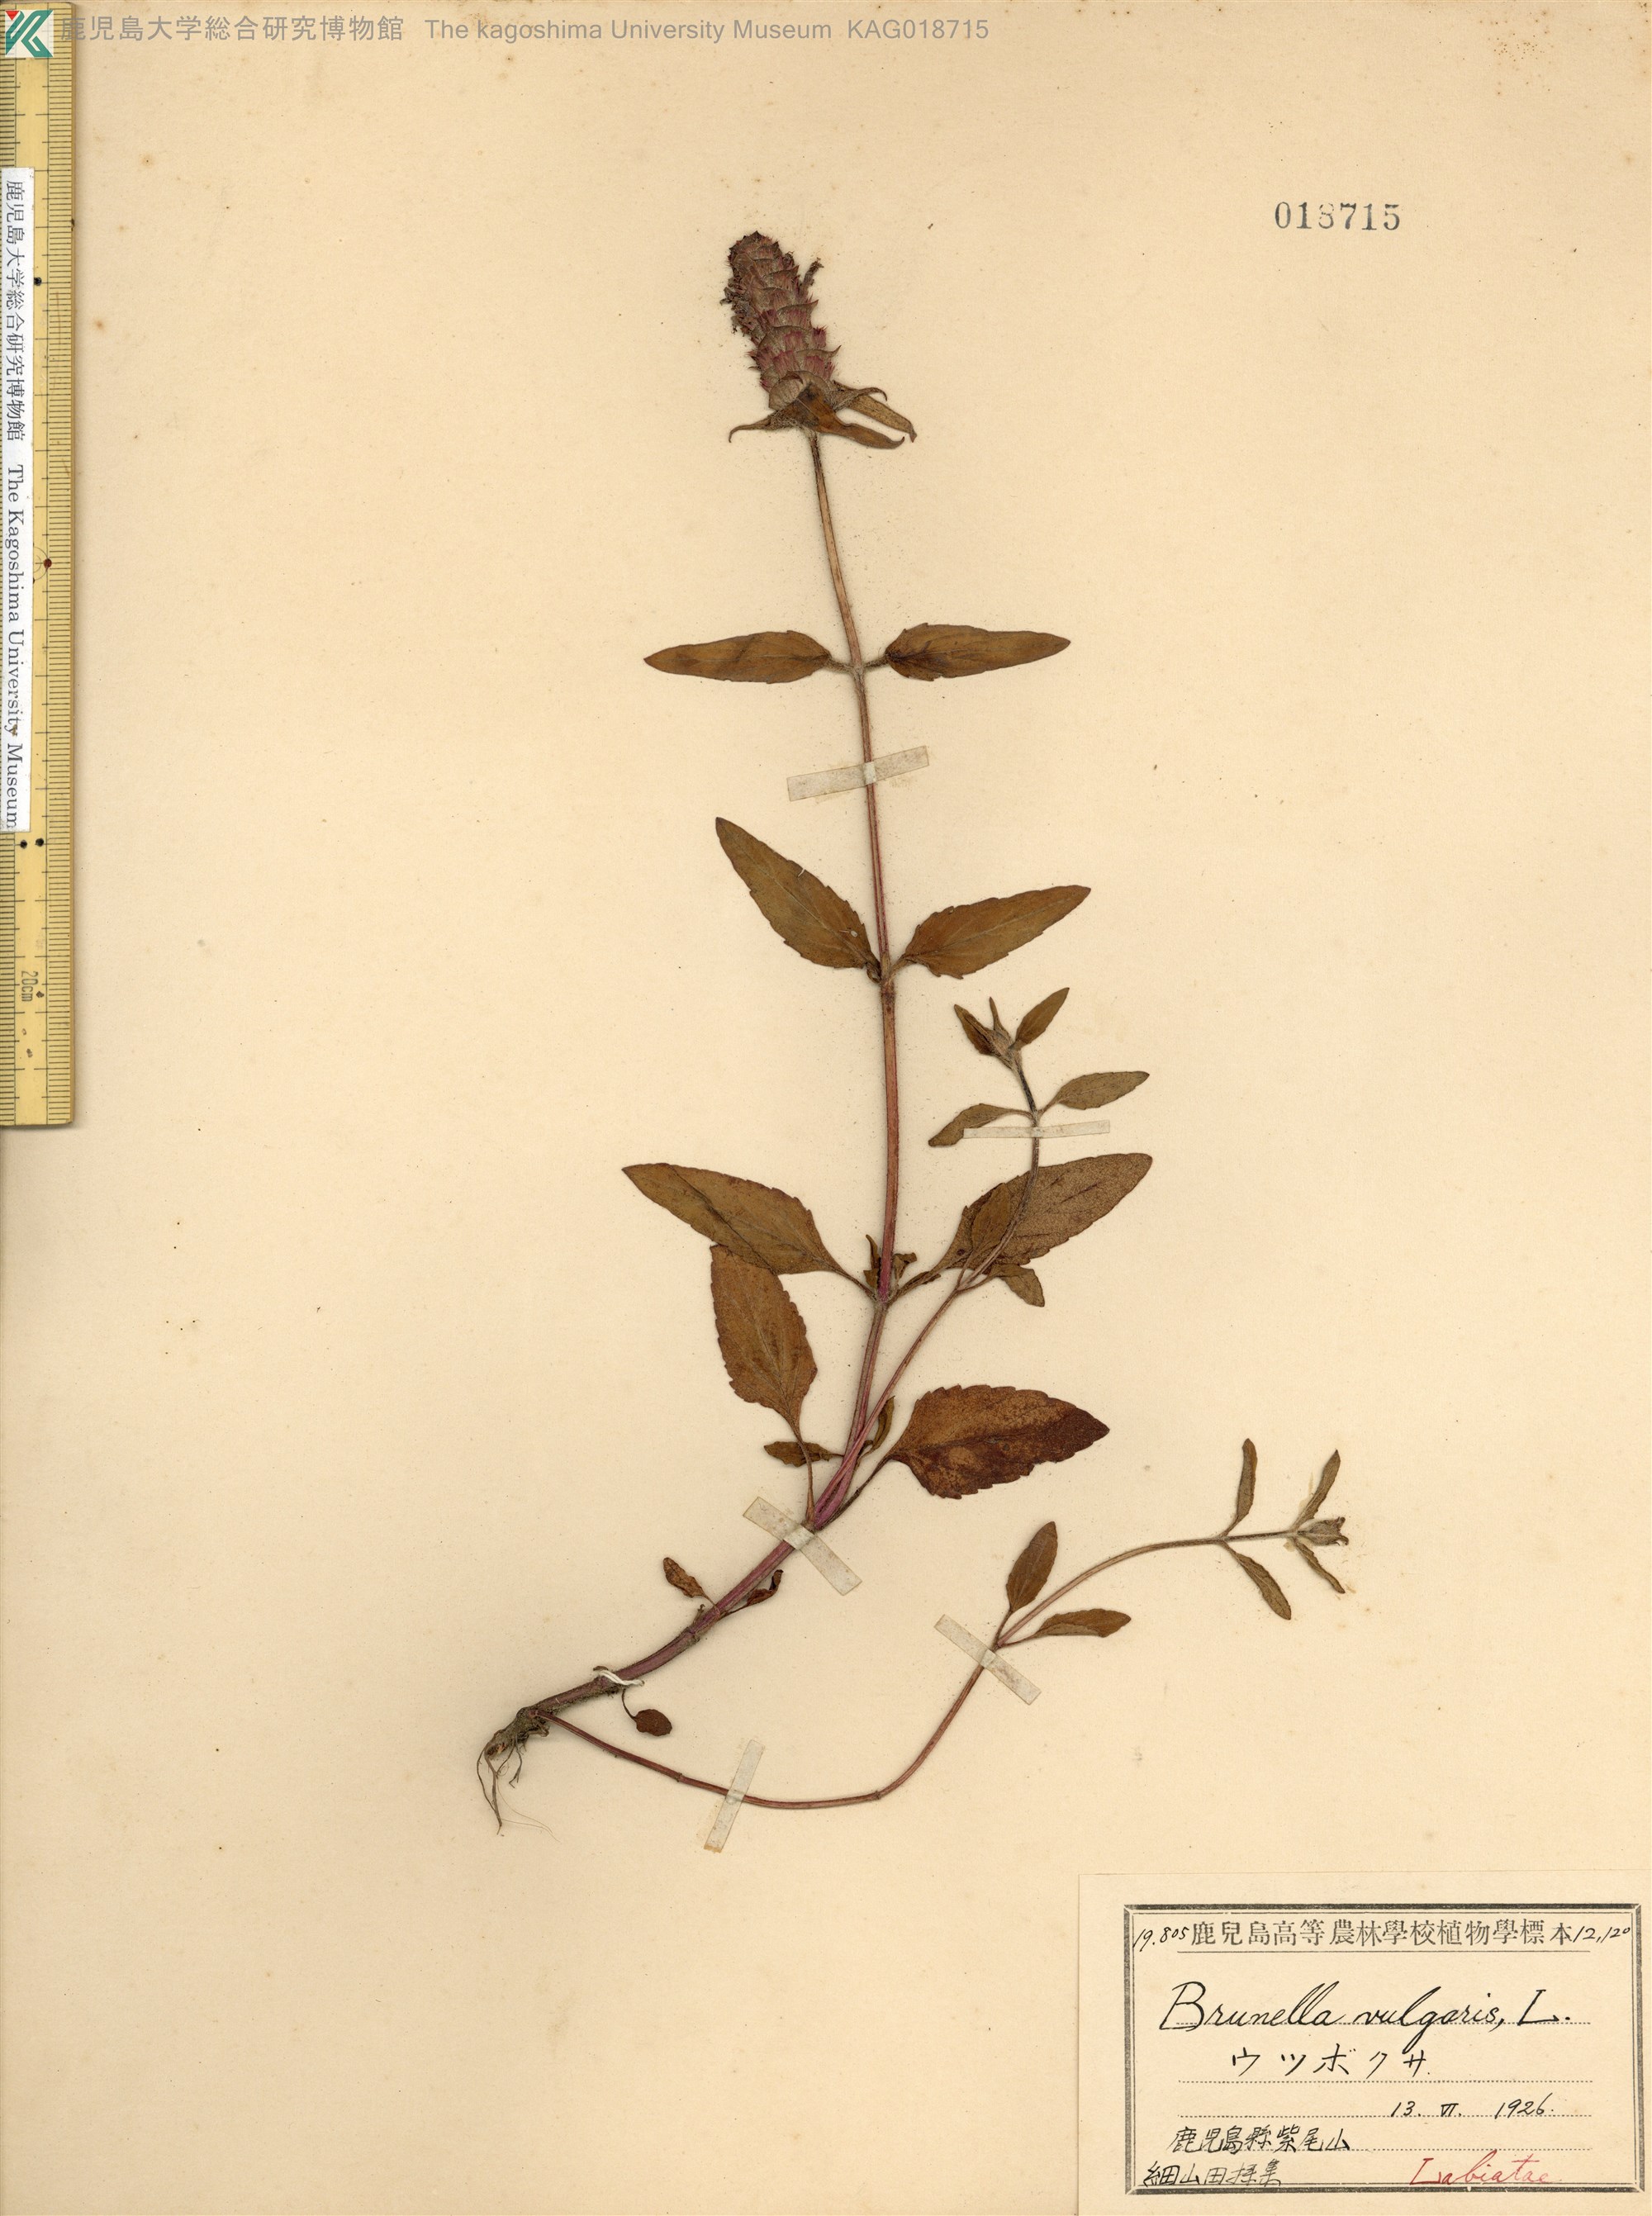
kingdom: Plantae
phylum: Tracheophyta
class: Magnoliopsida
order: Lamiales
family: Lamiaceae
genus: Prunella
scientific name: Prunella vulgaris
